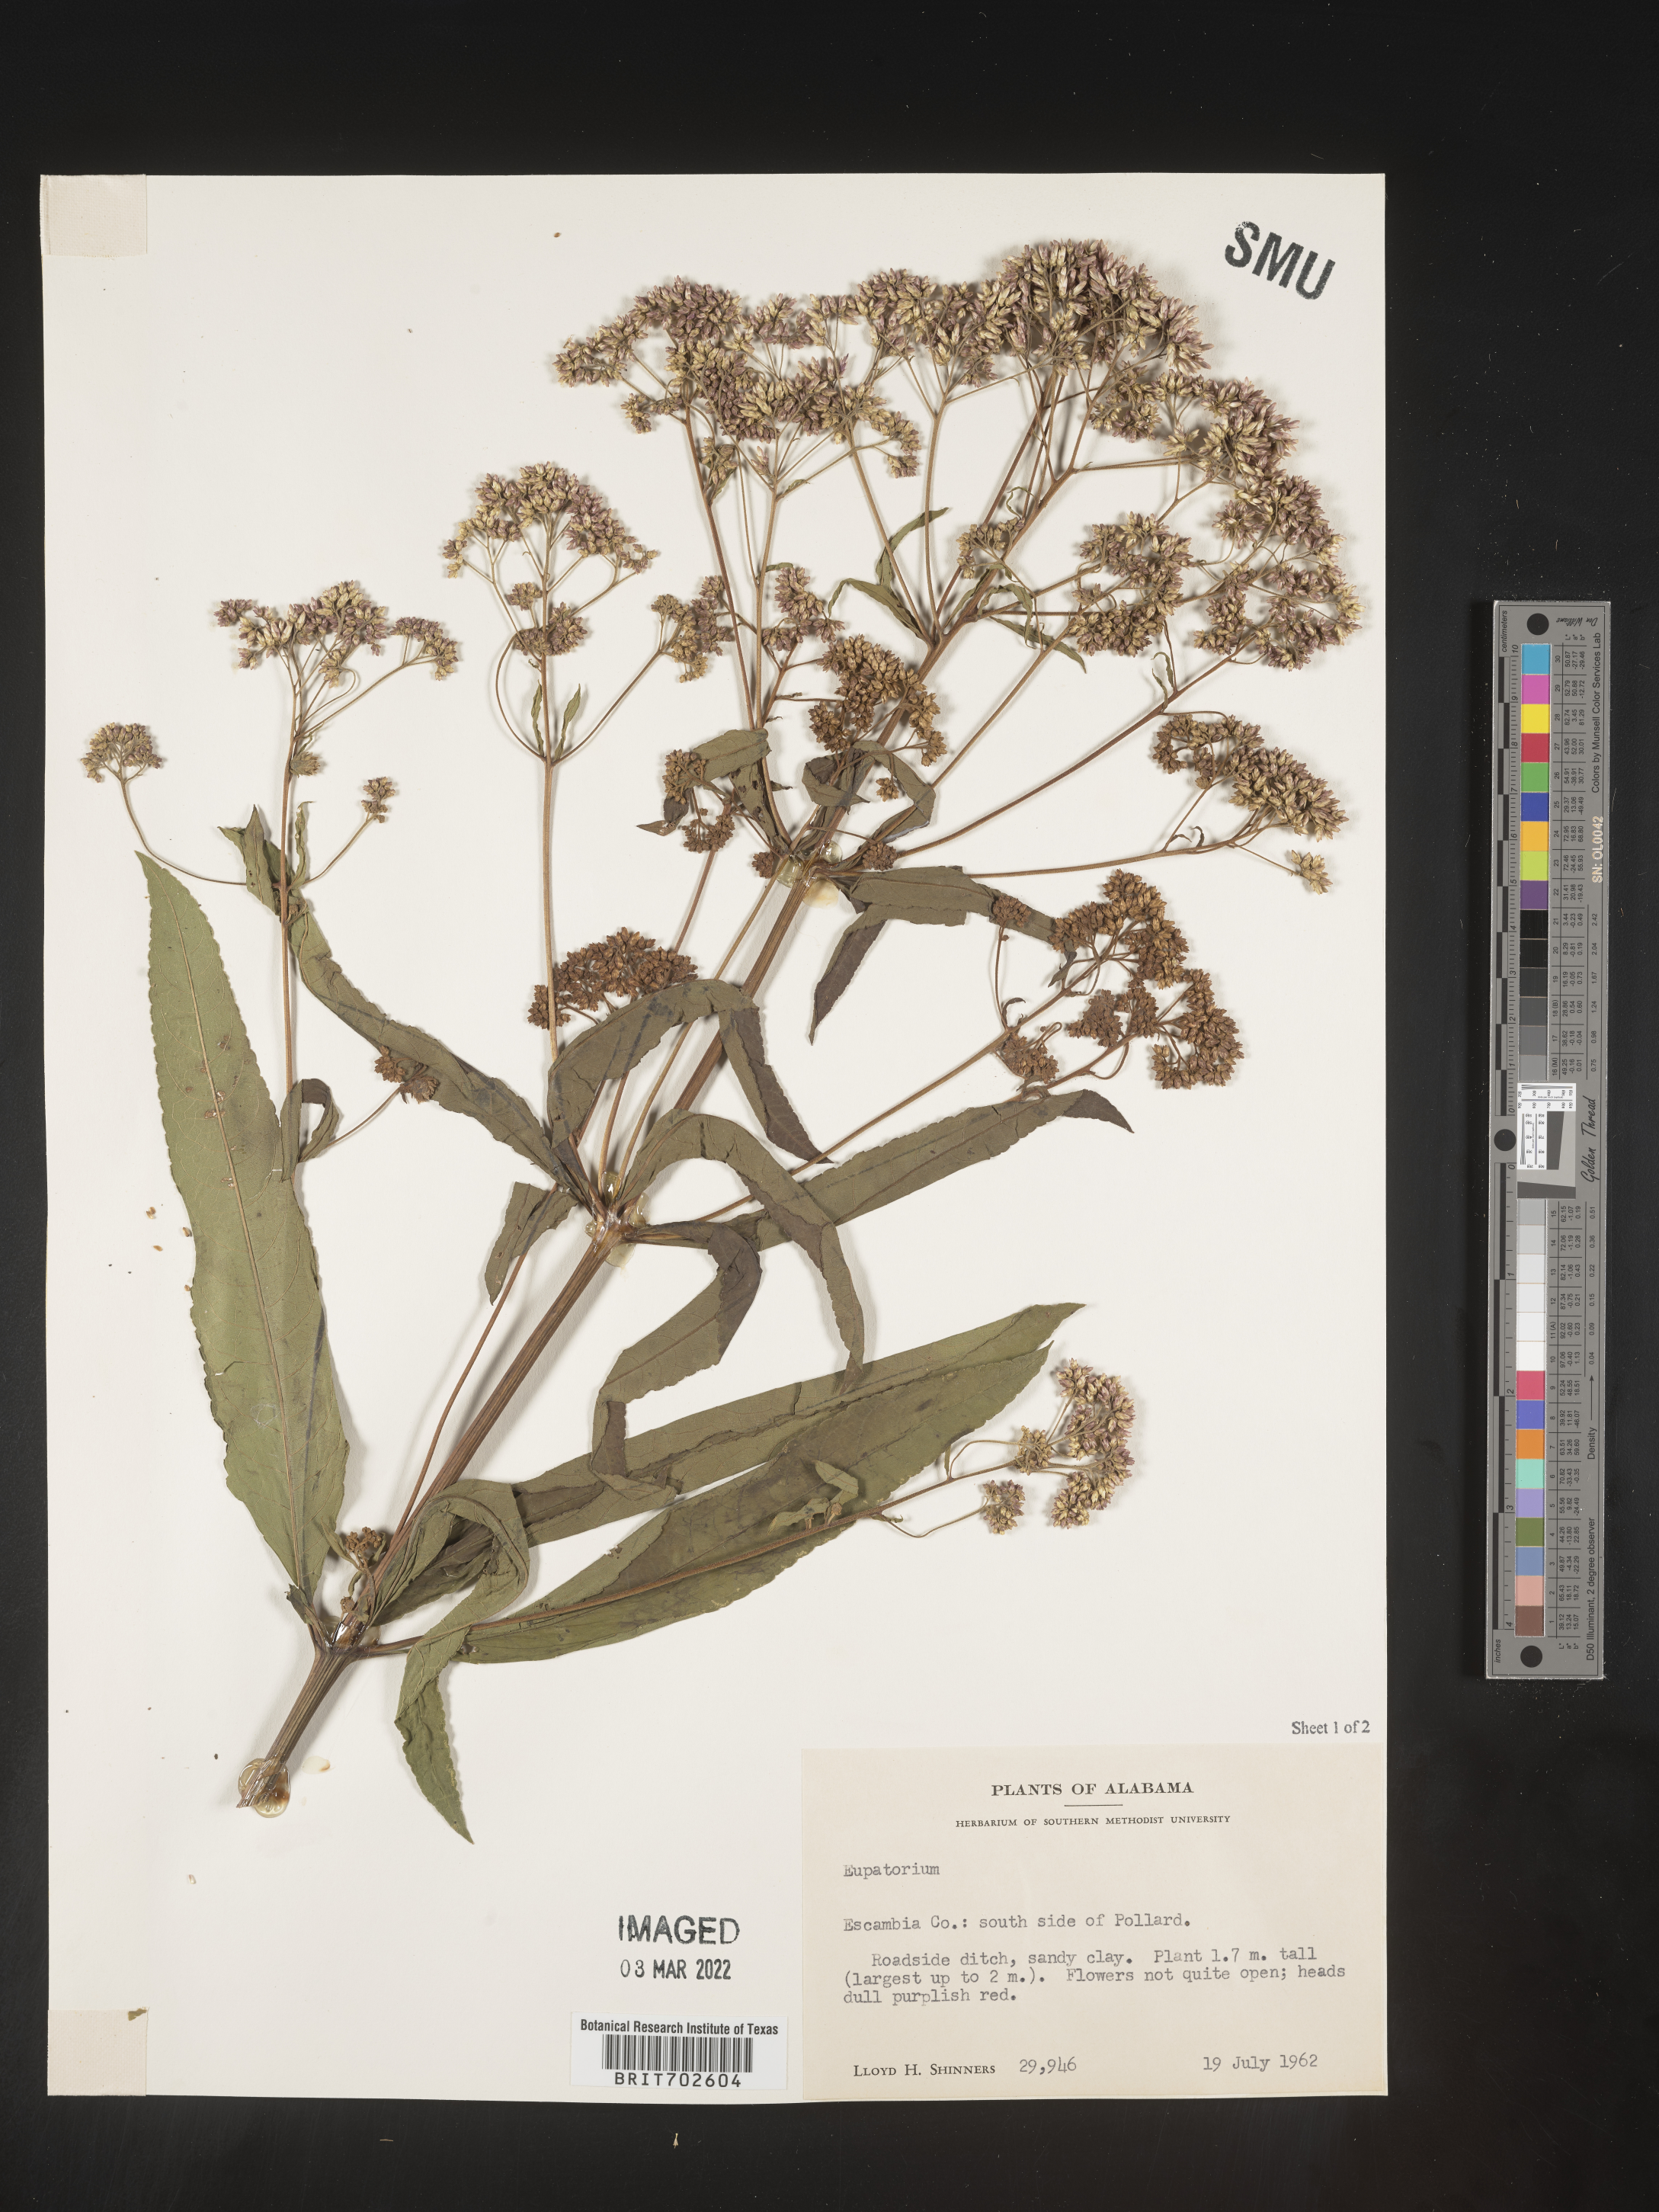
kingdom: Plantae
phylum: Tracheophyta
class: Magnoliopsida
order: Asterales
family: Asteraceae
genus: Eupatorium
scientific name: Eupatorium
